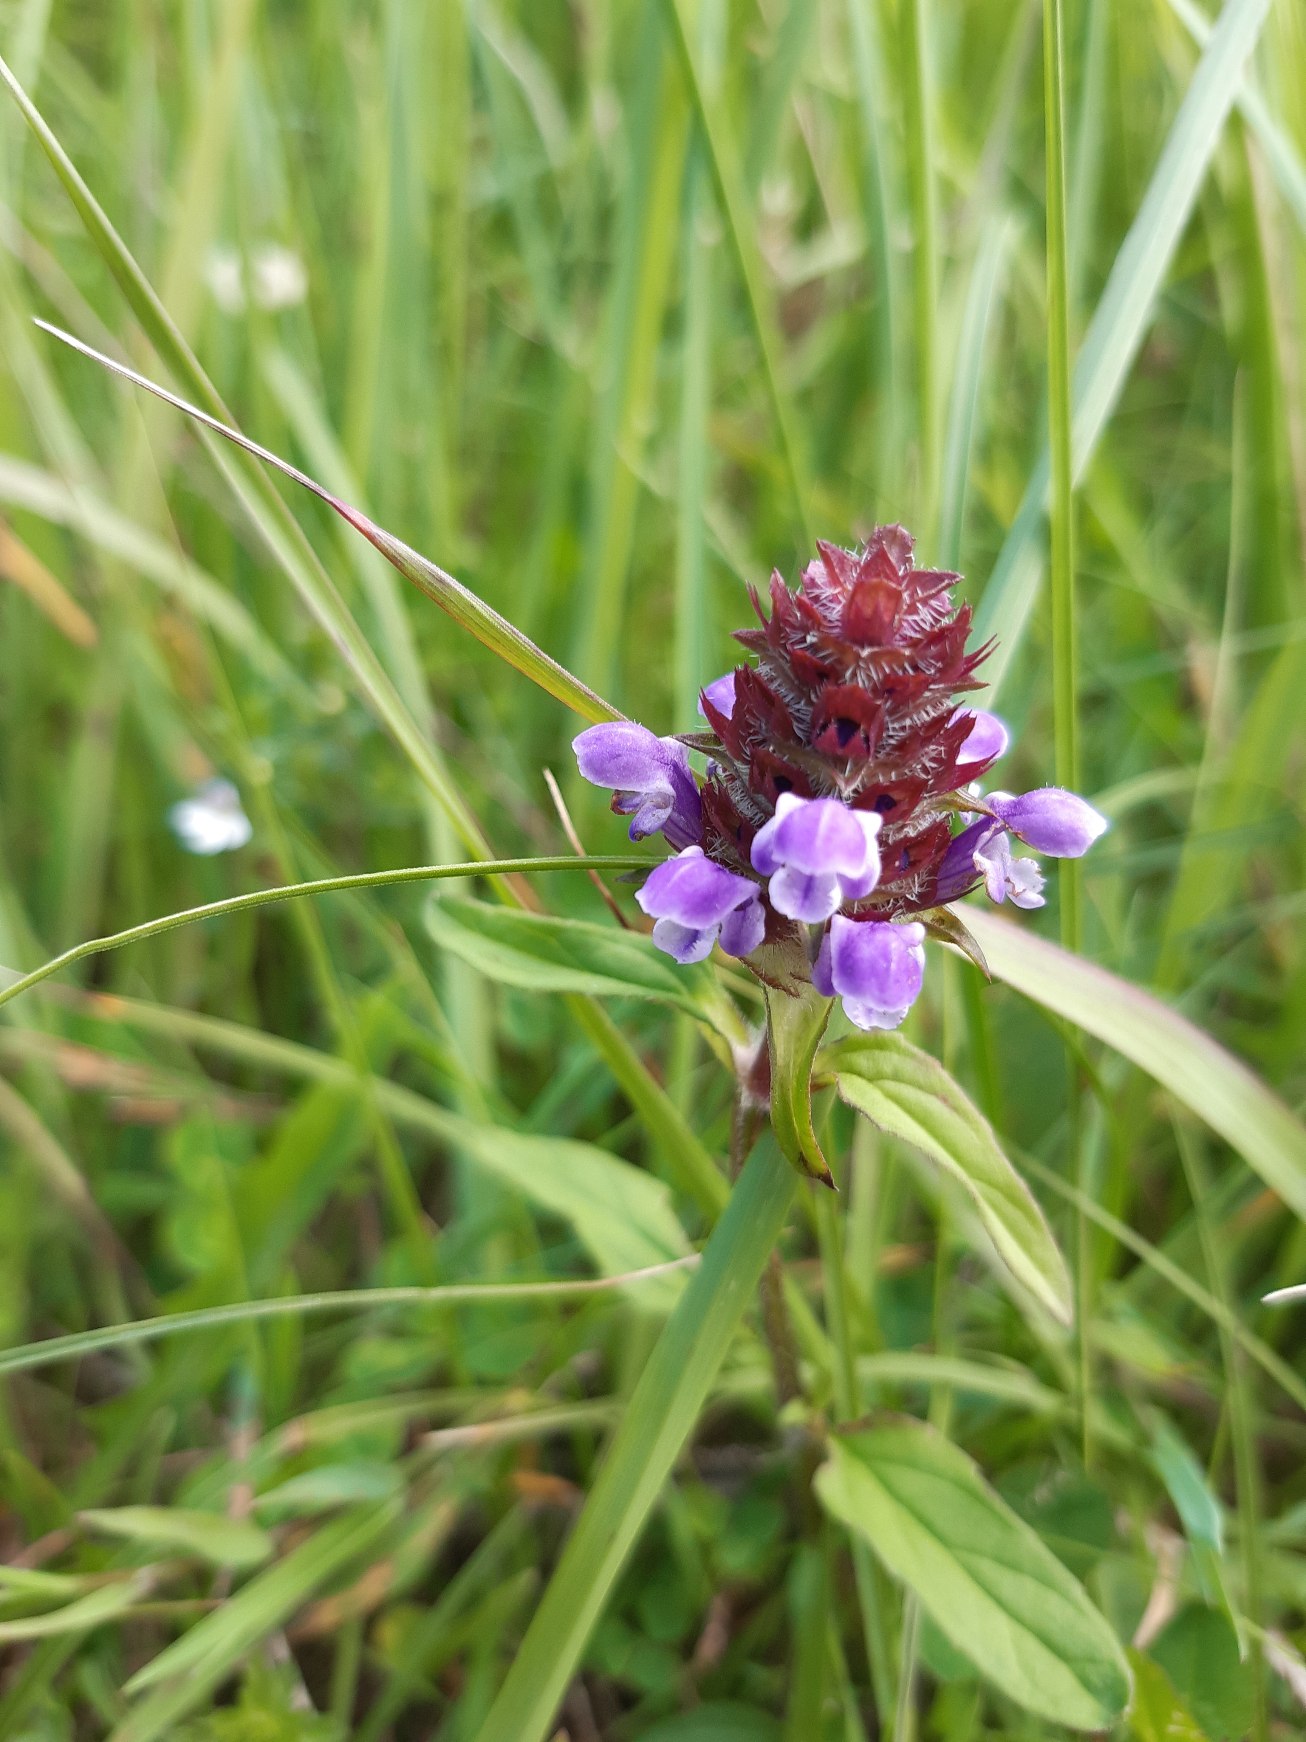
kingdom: Plantae
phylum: Tracheophyta
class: Magnoliopsida
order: Lamiales
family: Lamiaceae
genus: Prunella
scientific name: Prunella vulgaris
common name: Almindelig brunelle
